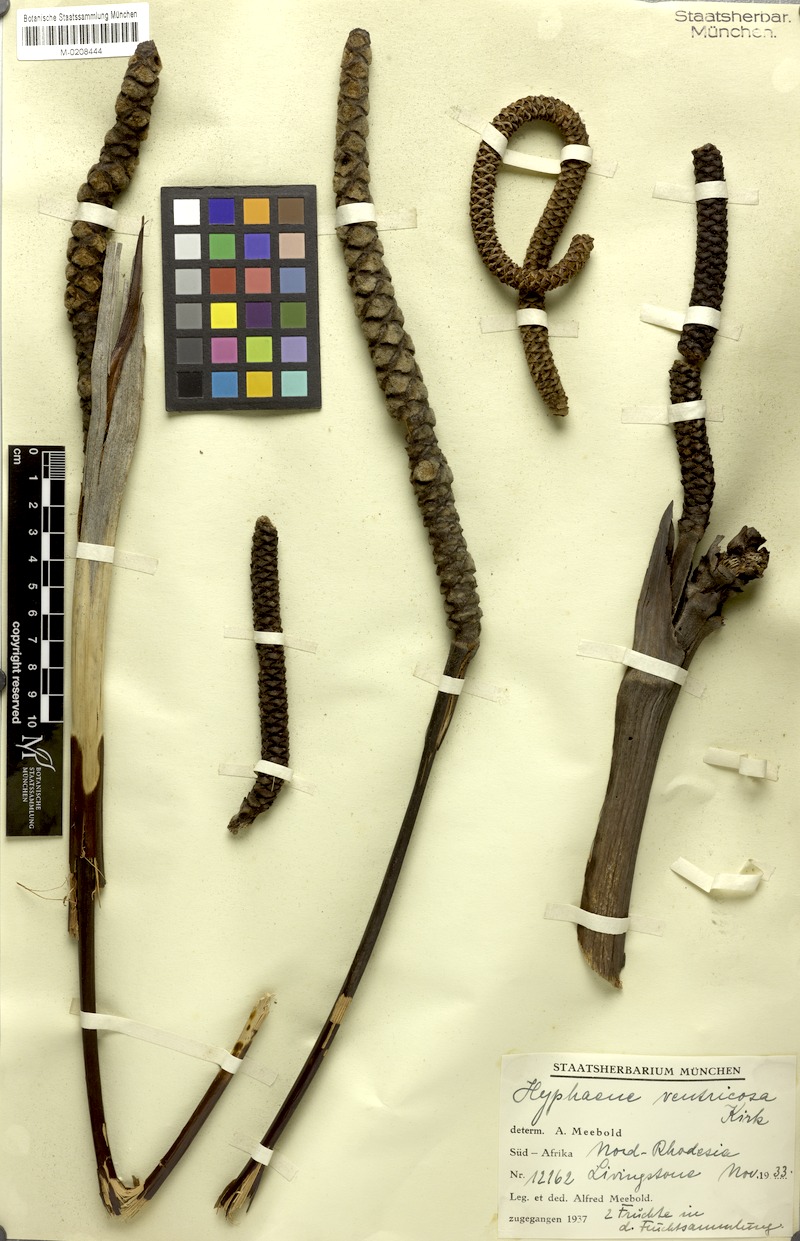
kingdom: Plantae
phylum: Tracheophyta
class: Liliopsida
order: Arecales
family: Arecaceae
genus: Hyphaene
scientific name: Hyphaene petersiana
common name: African ivory nut palm
